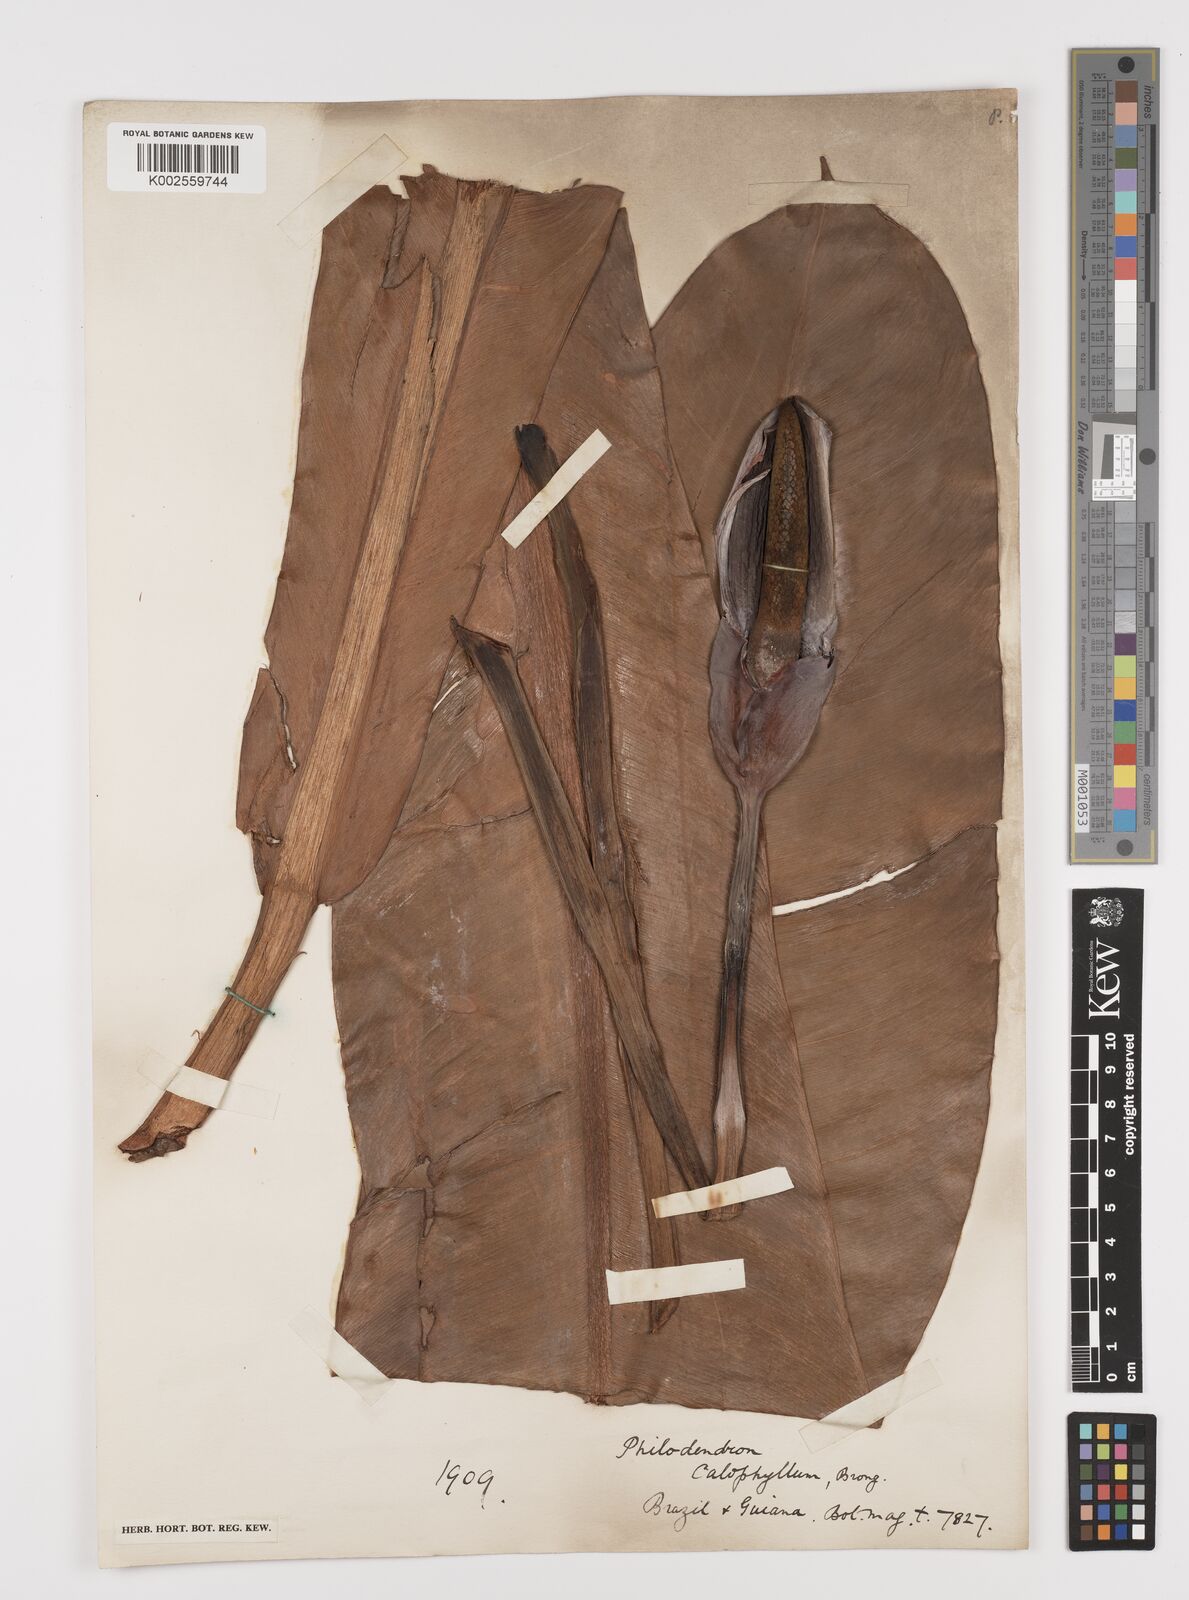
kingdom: Plantae
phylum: Tracheophyta
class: Liliopsida
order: Alismatales
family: Araceae
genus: Philodendron
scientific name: Philodendron insigne
